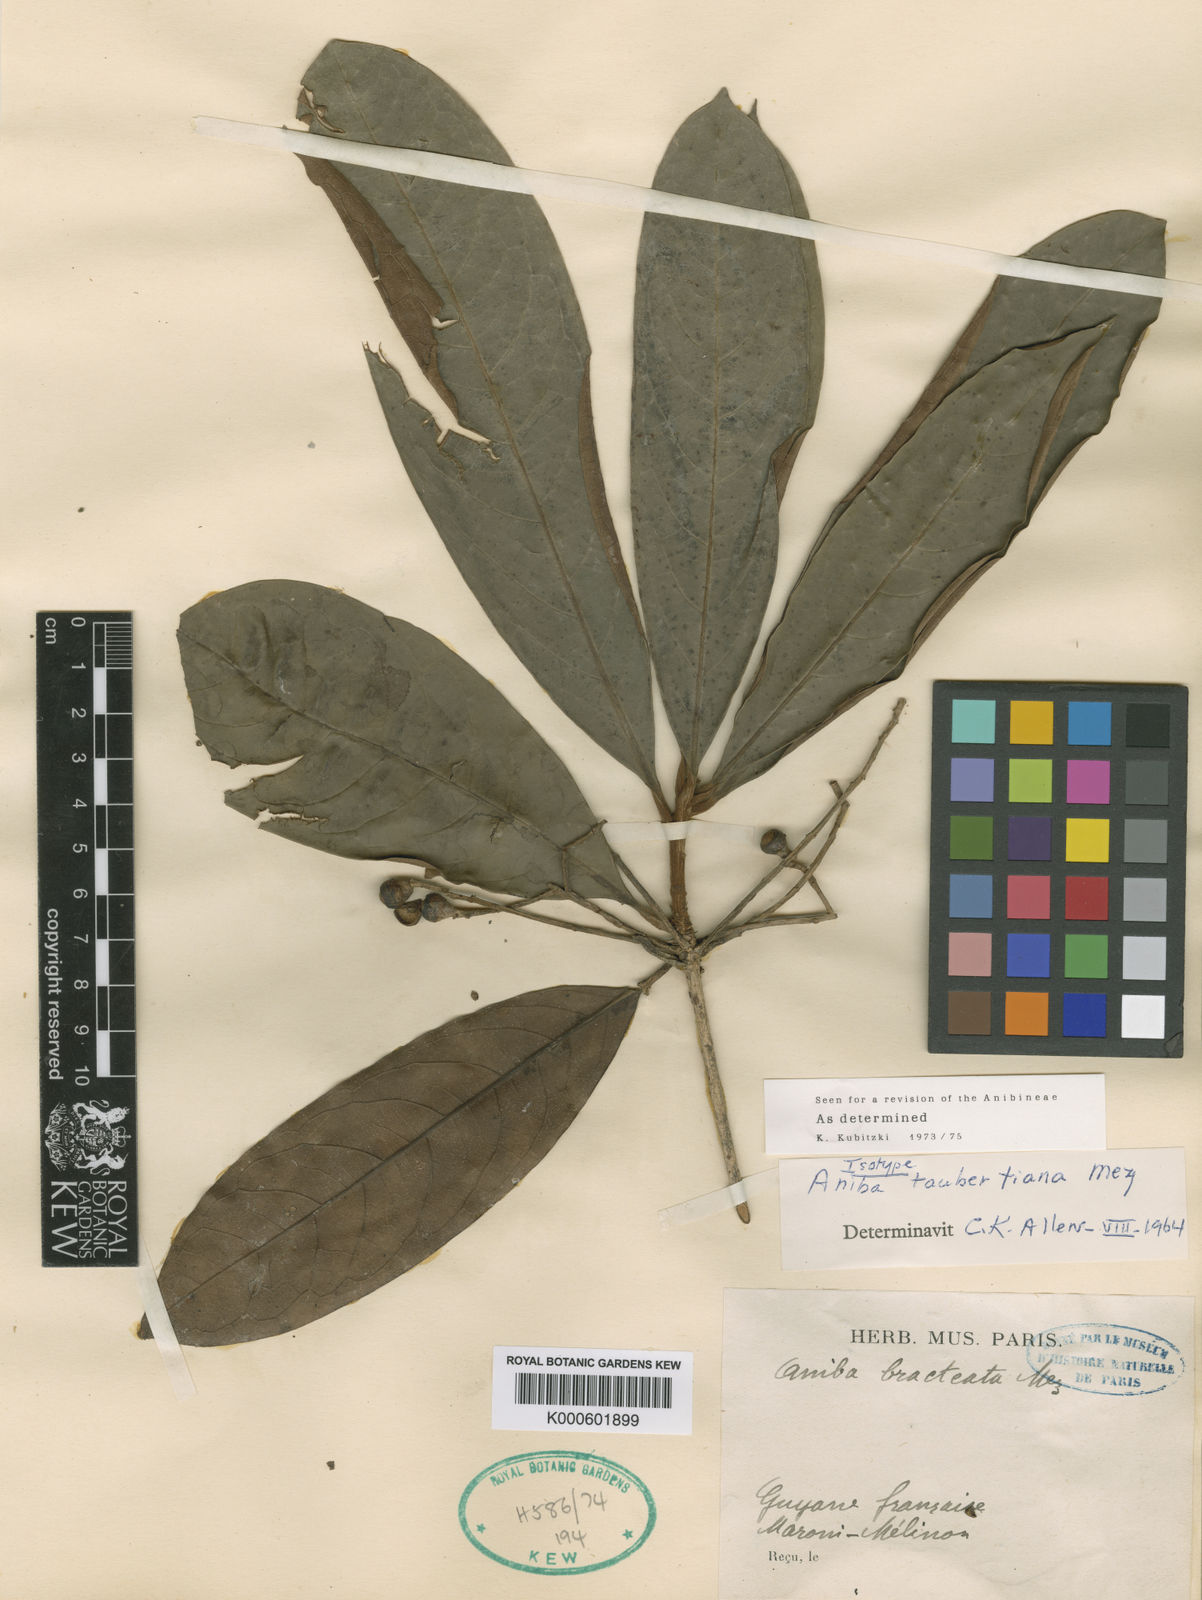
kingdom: Plantae
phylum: Tracheophyta
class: Magnoliopsida
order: Laurales
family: Lauraceae
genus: Aniba
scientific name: Aniba taubertiana
